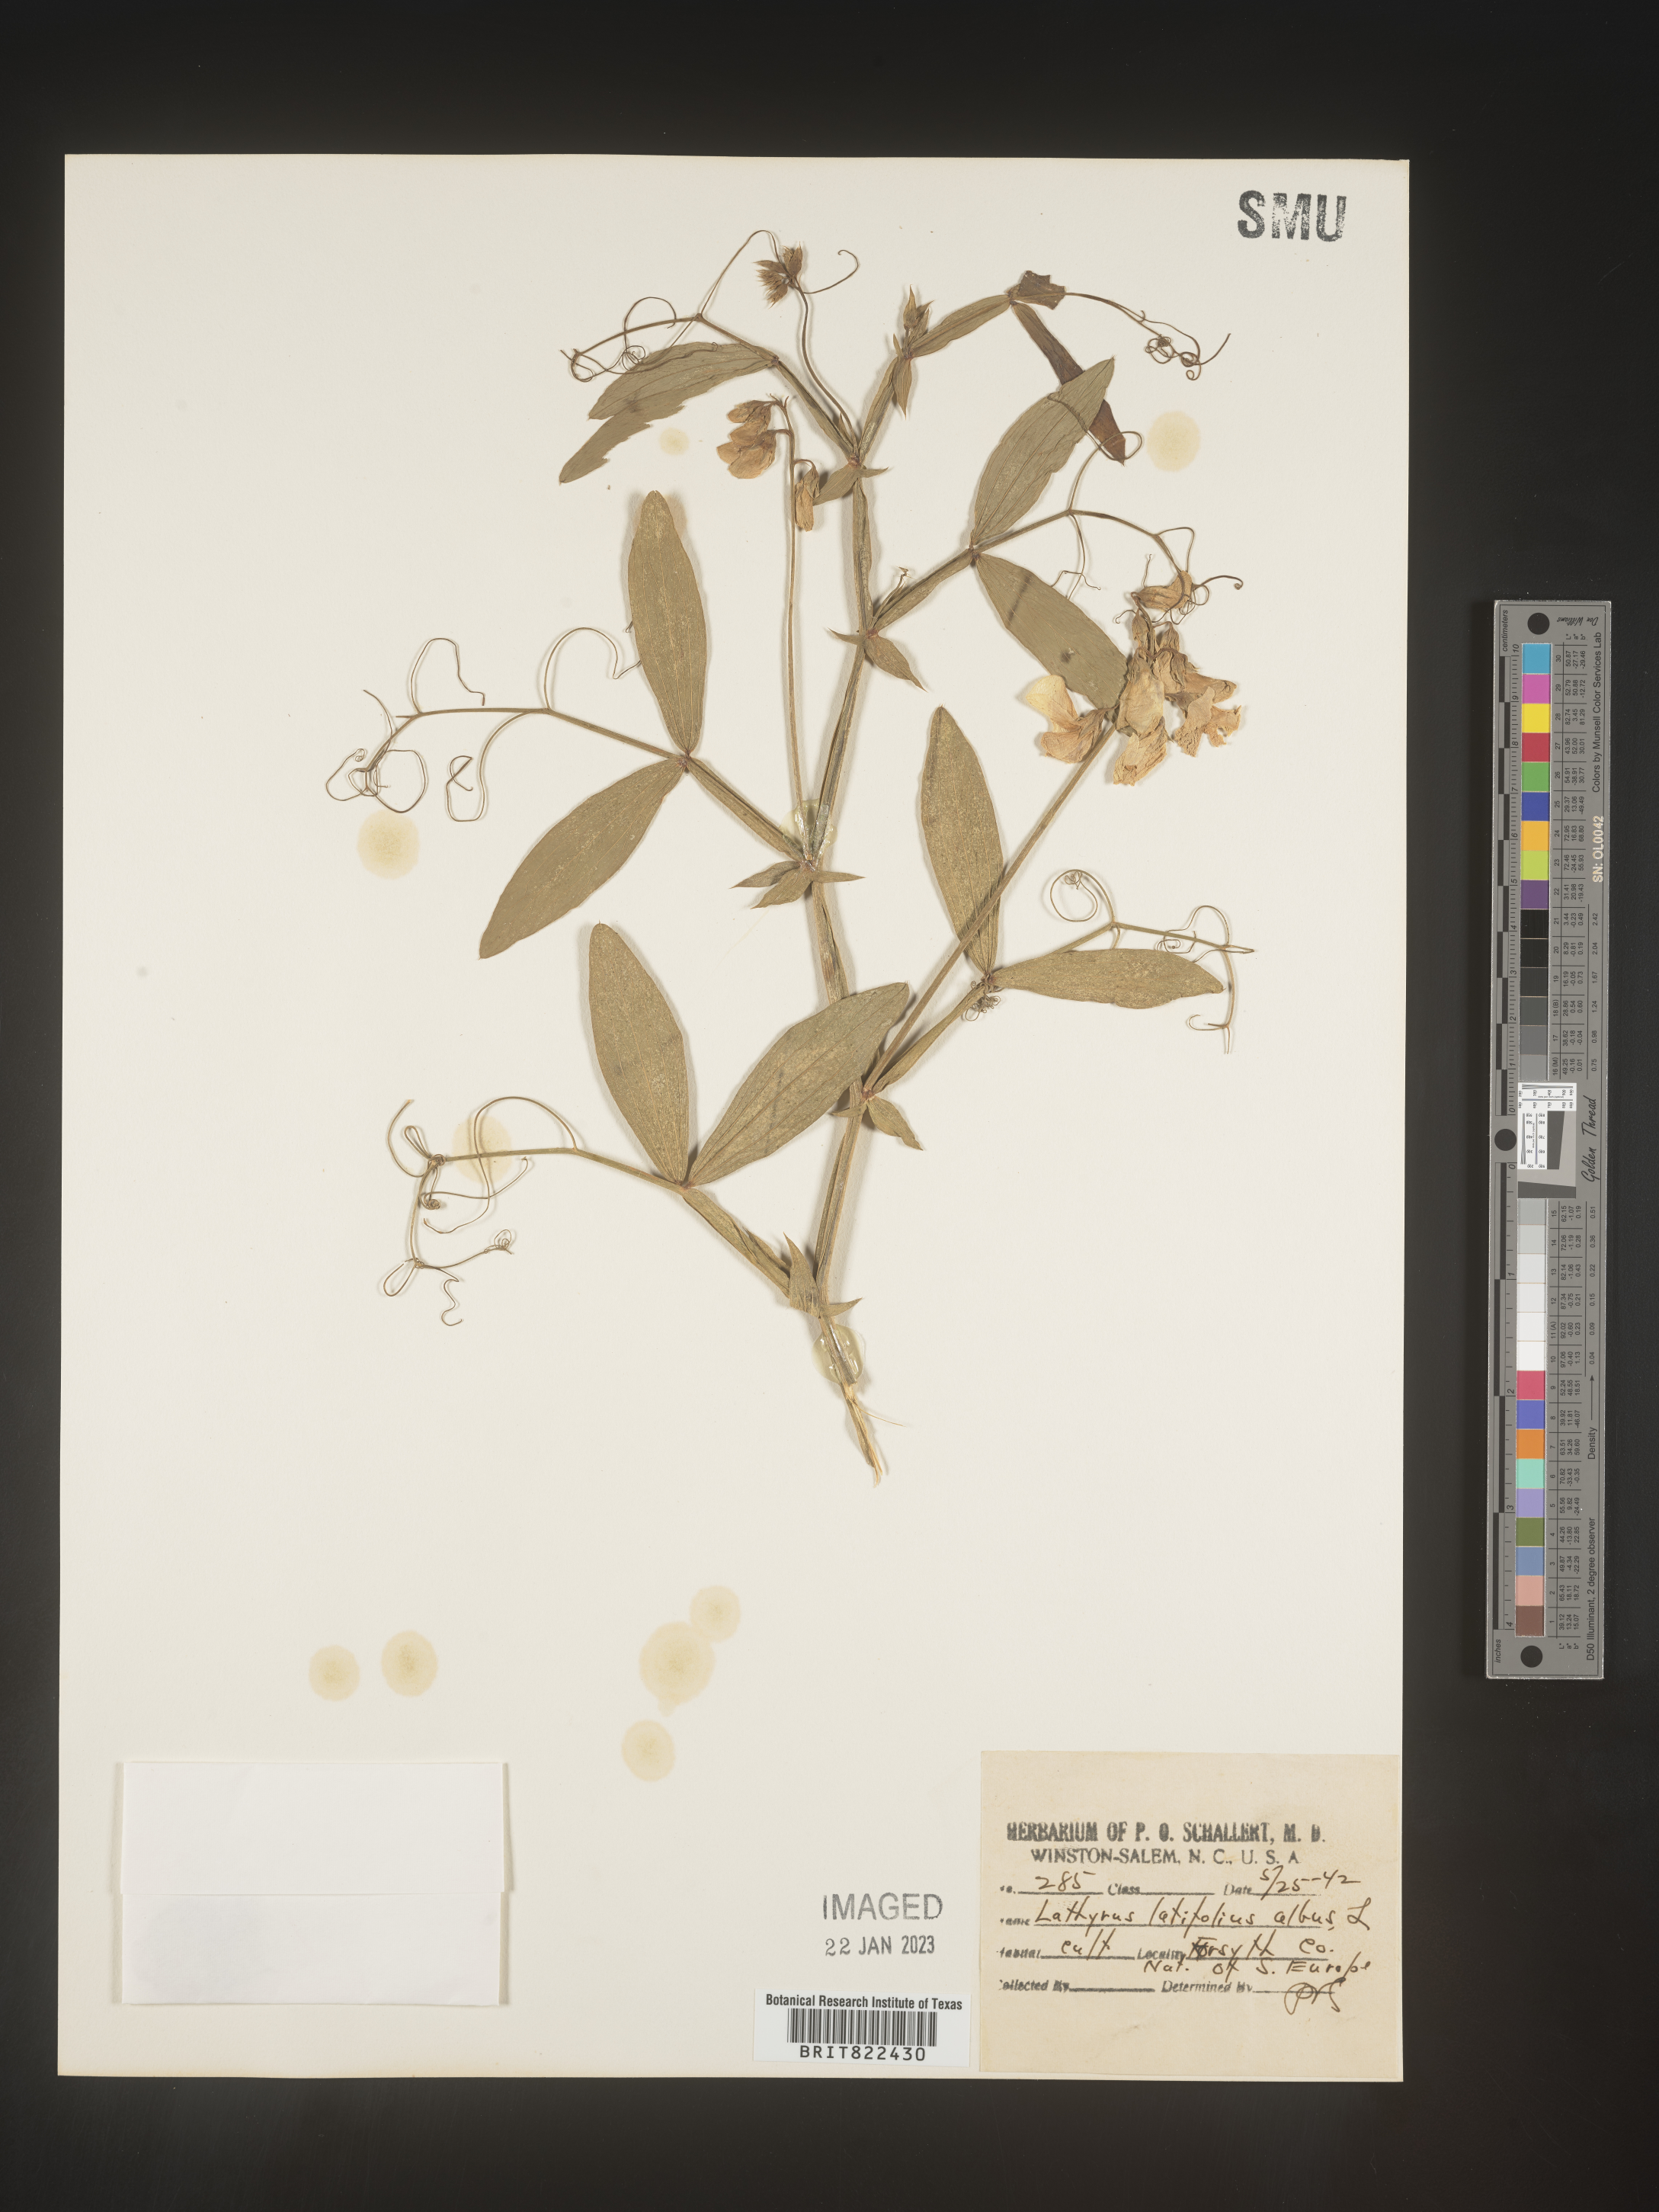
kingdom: Plantae
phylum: Tracheophyta
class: Magnoliopsida
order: Fabales
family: Fabaceae
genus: Lathyrus
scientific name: Lathyrus
